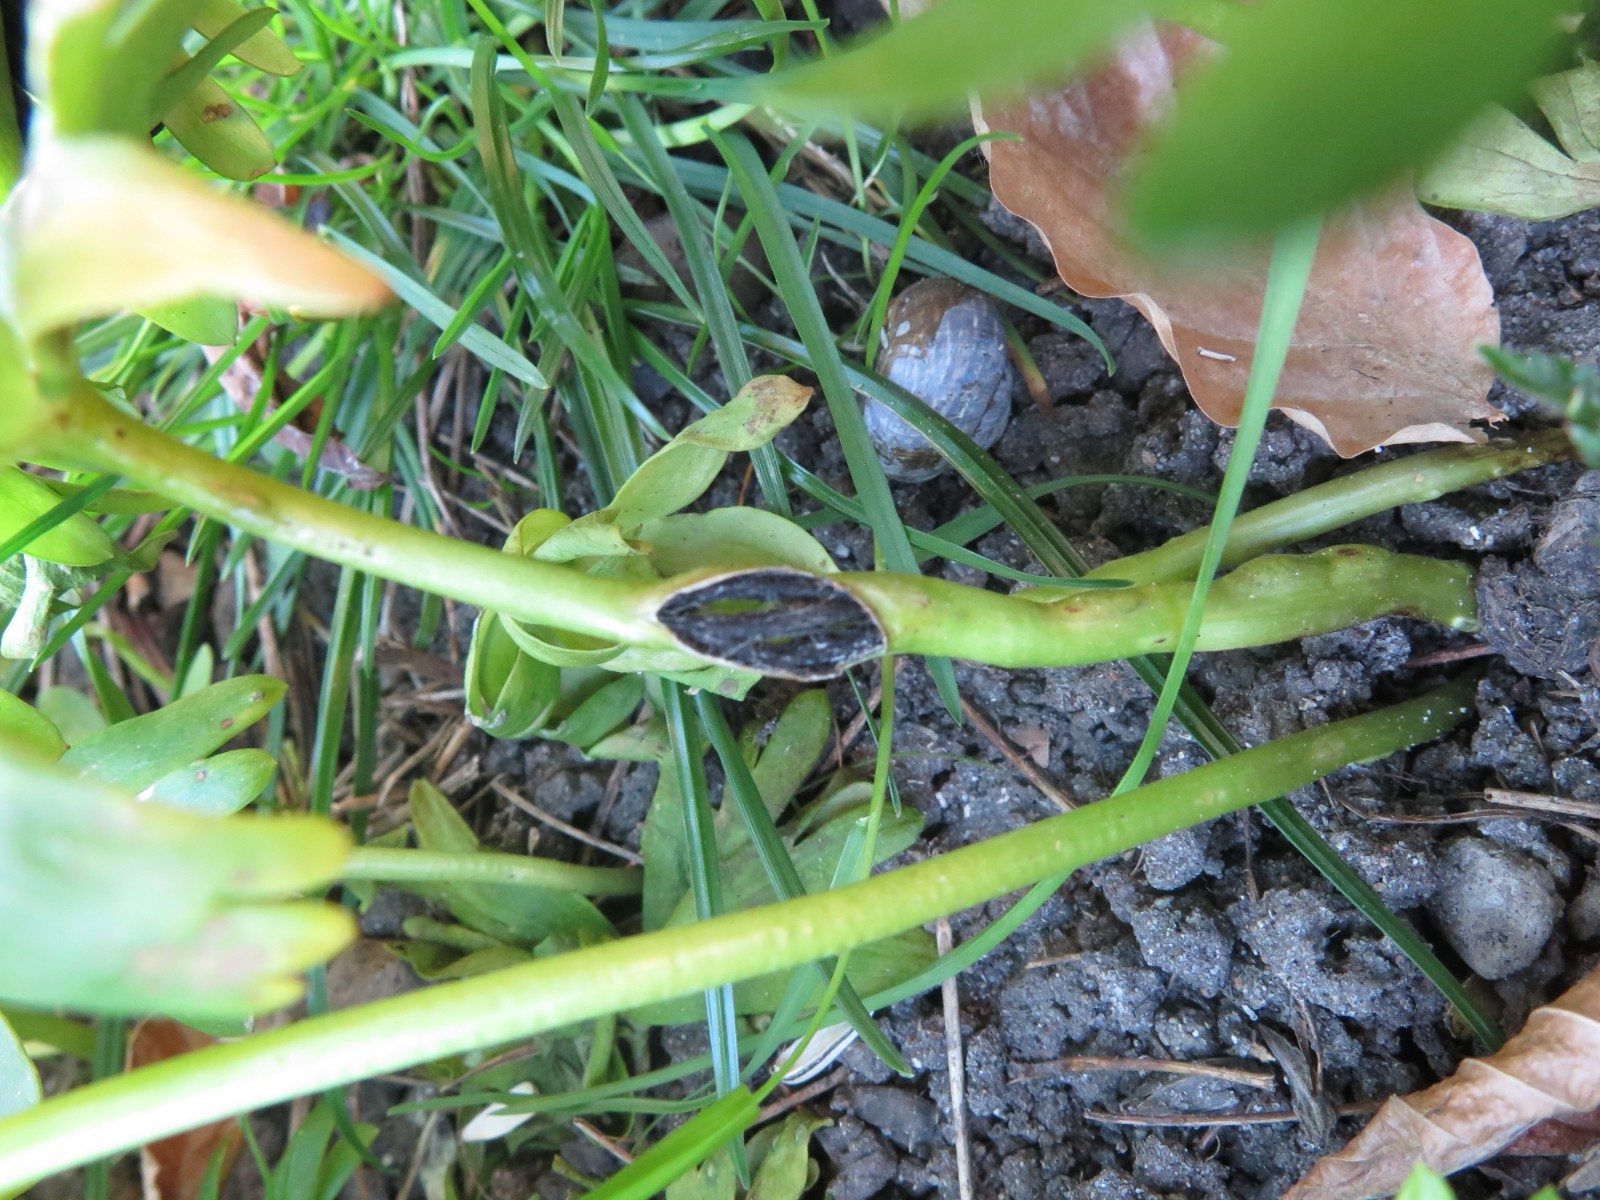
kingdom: Fungi
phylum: Basidiomycota
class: Ustilaginomycetes
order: Urocystidales
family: Urocystidaceae
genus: Urocystis
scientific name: Urocystis eranthidis
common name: erantis-brand
